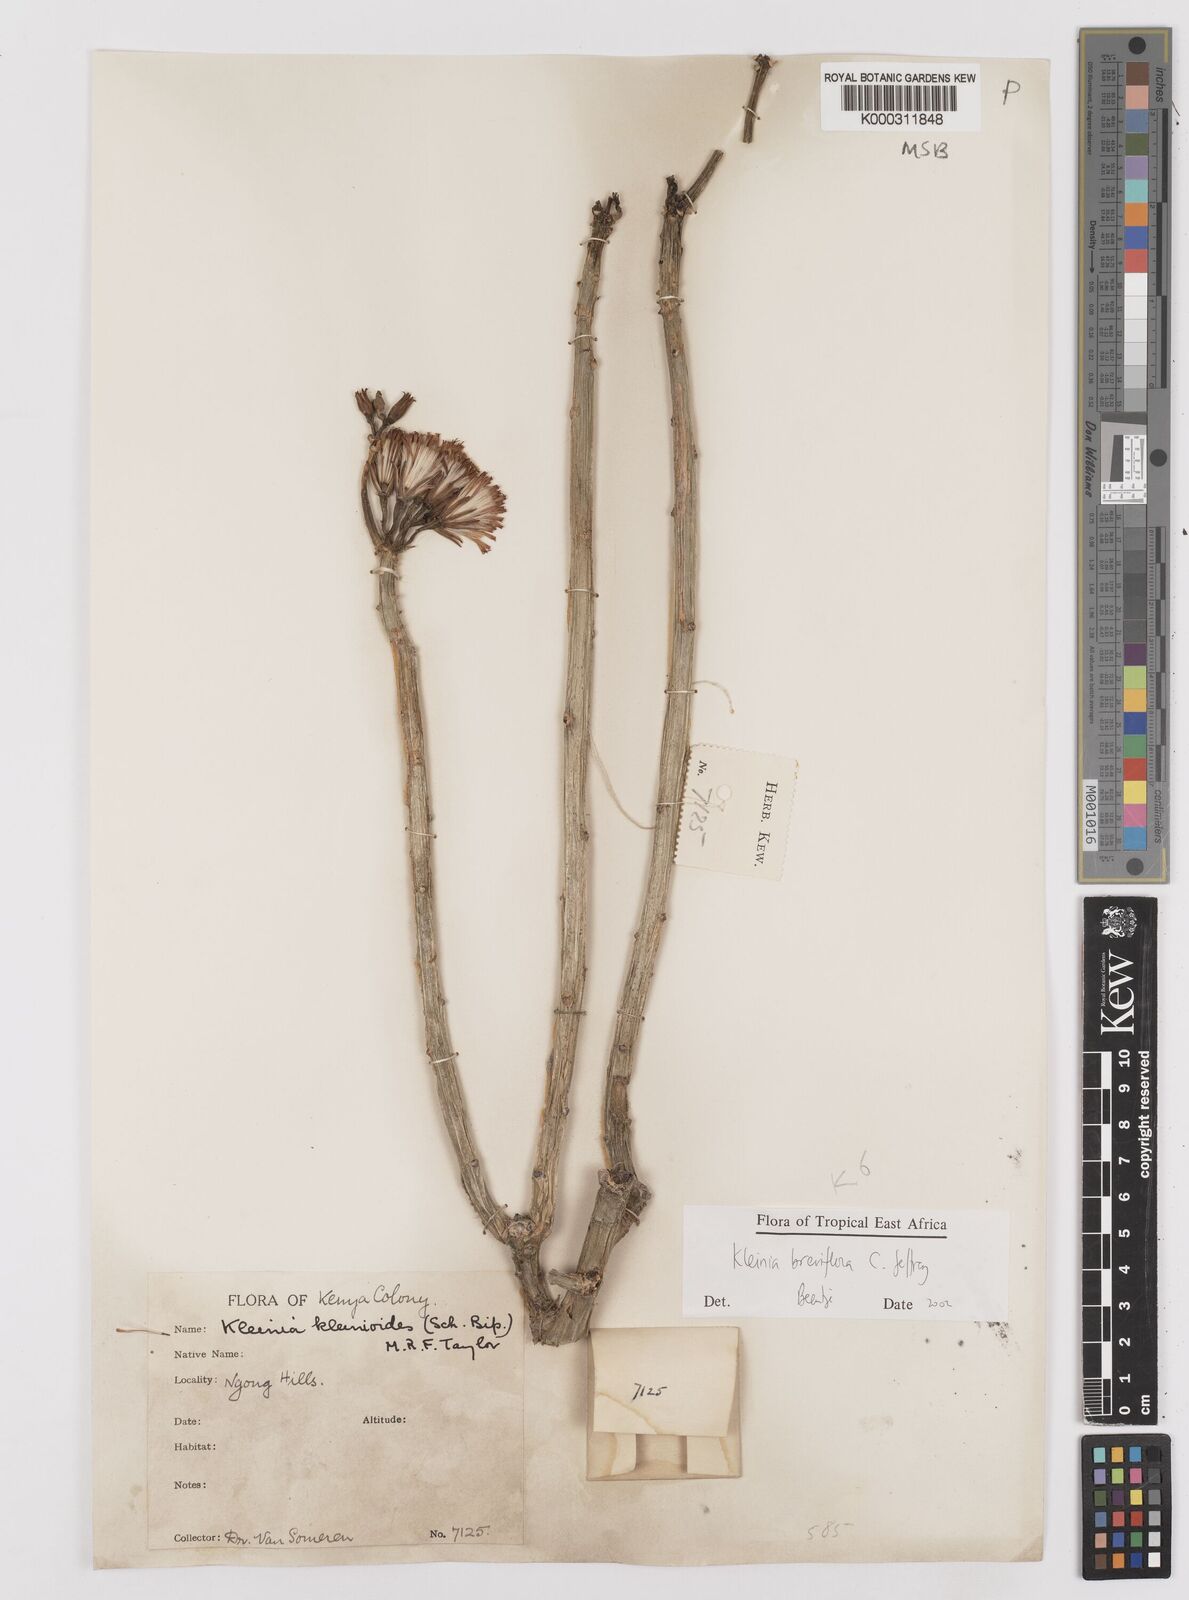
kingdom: Plantae
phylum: Tracheophyta
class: Magnoliopsida
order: Asterales
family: Asteraceae
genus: Kleinia
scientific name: Kleinia polycotoma
